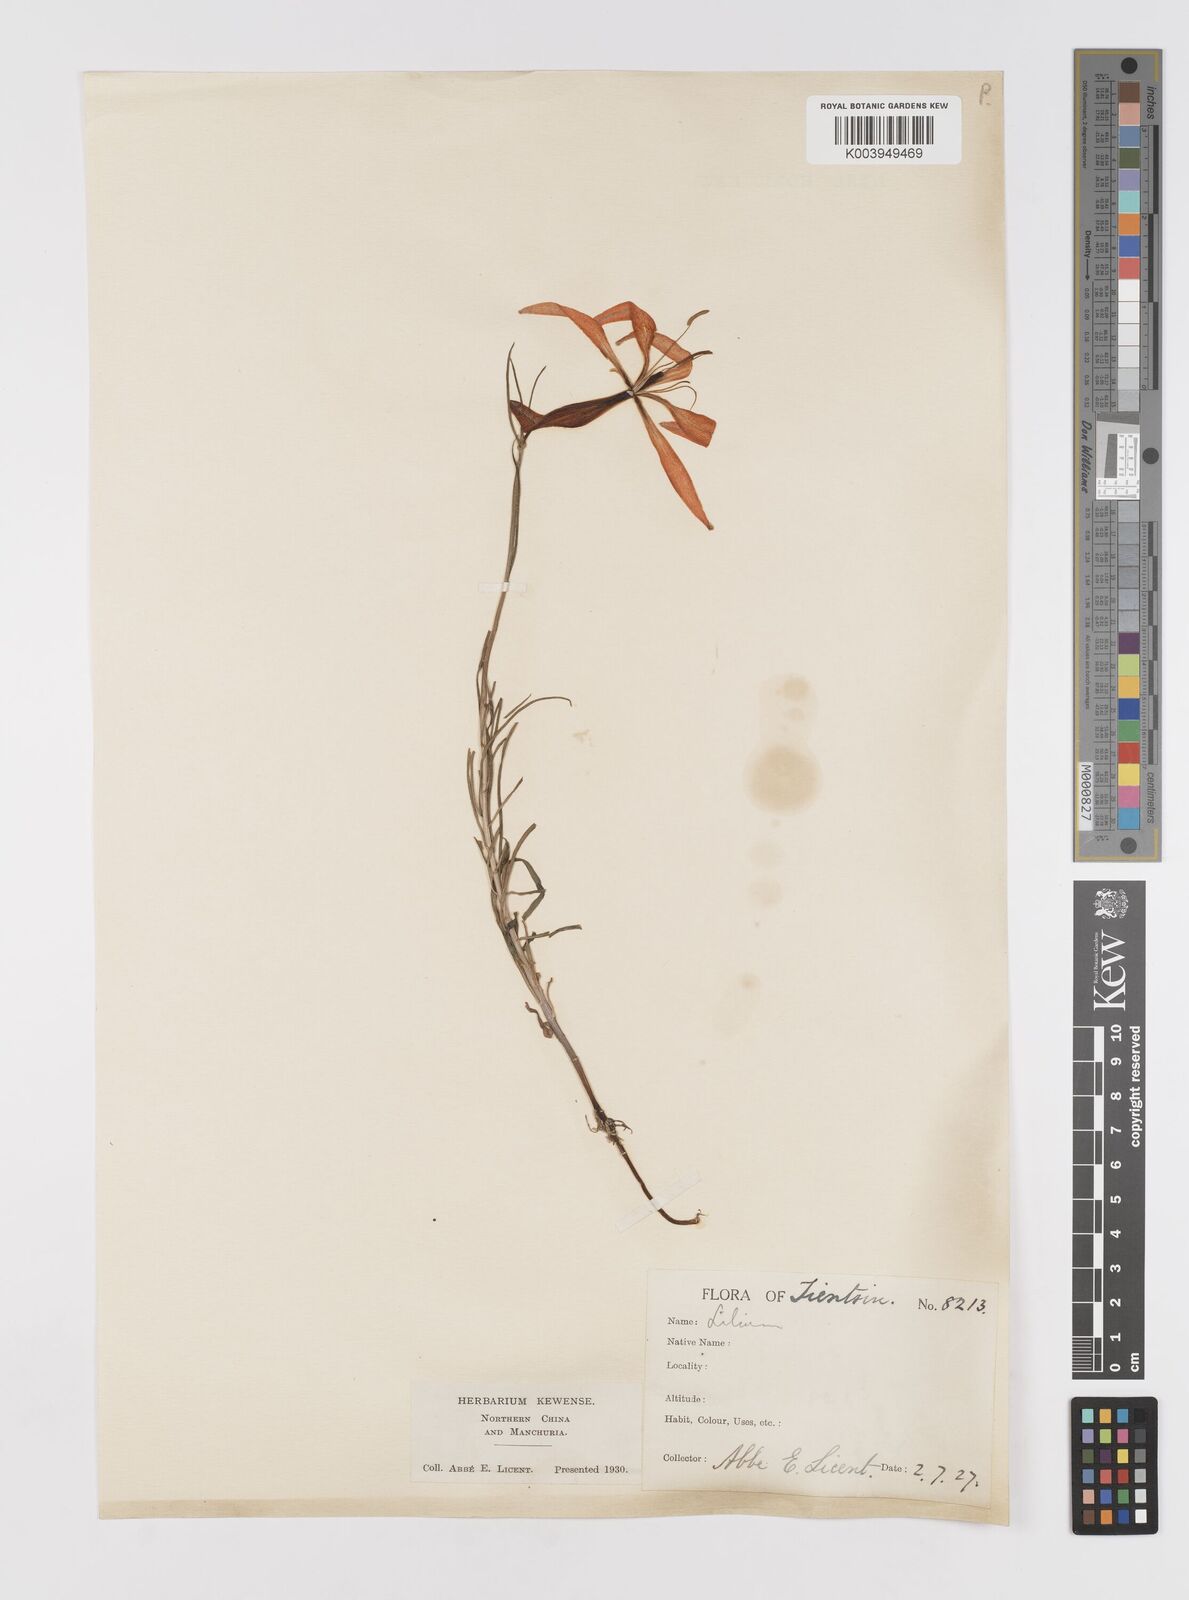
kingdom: Plantae
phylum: Tracheophyta
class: Liliopsida
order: Liliales
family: Liliaceae
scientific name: Liliaceae
